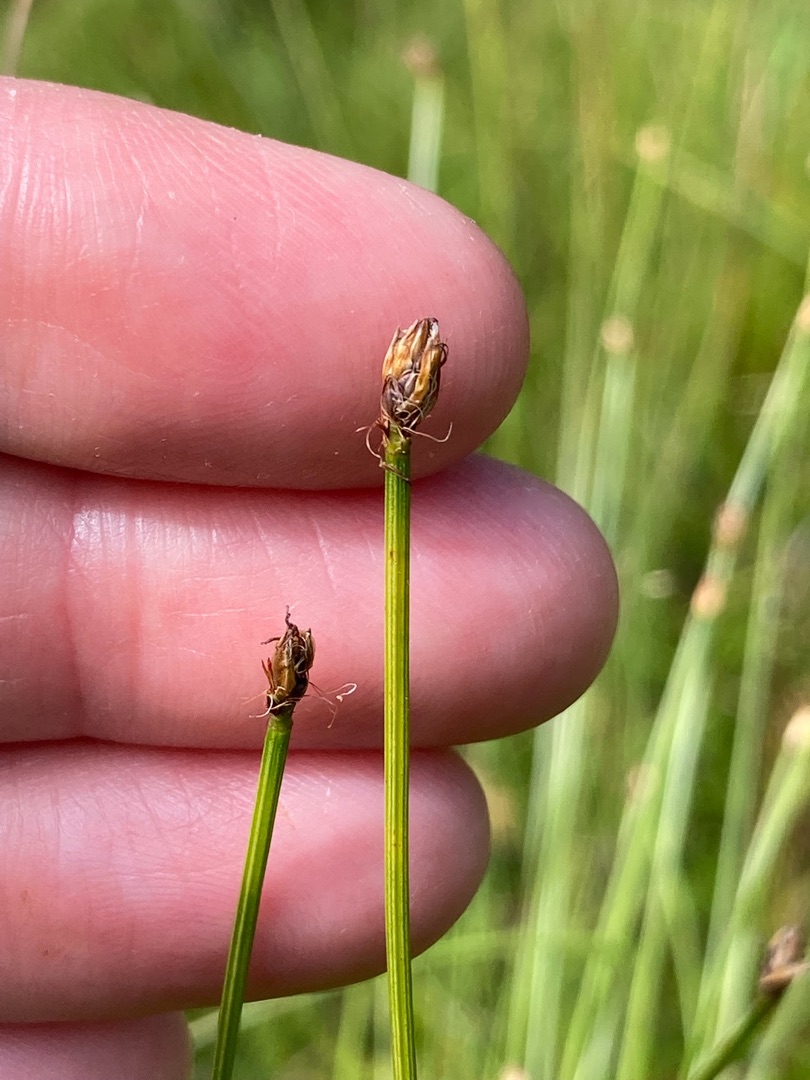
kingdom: Plantae
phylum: Tracheophyta
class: Liliopsida
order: Poales
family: Cyperaceae
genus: Trichophorum
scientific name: Trichophorum cespitosum
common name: Vestlig tuekogleaks
